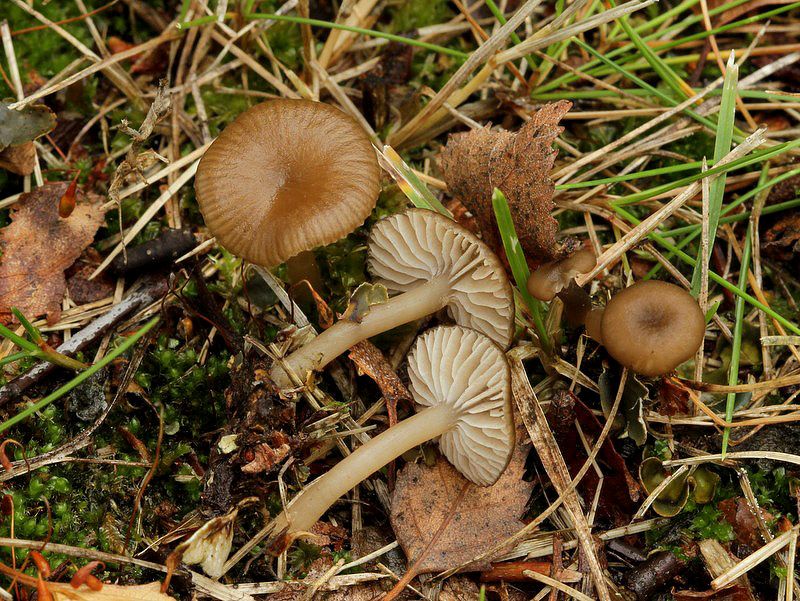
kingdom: Fungi
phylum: Basidiomycota
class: Agaricomycetes
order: Agaricales
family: Tricholomataceae
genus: Gamundia
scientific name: Gamundia striatula
